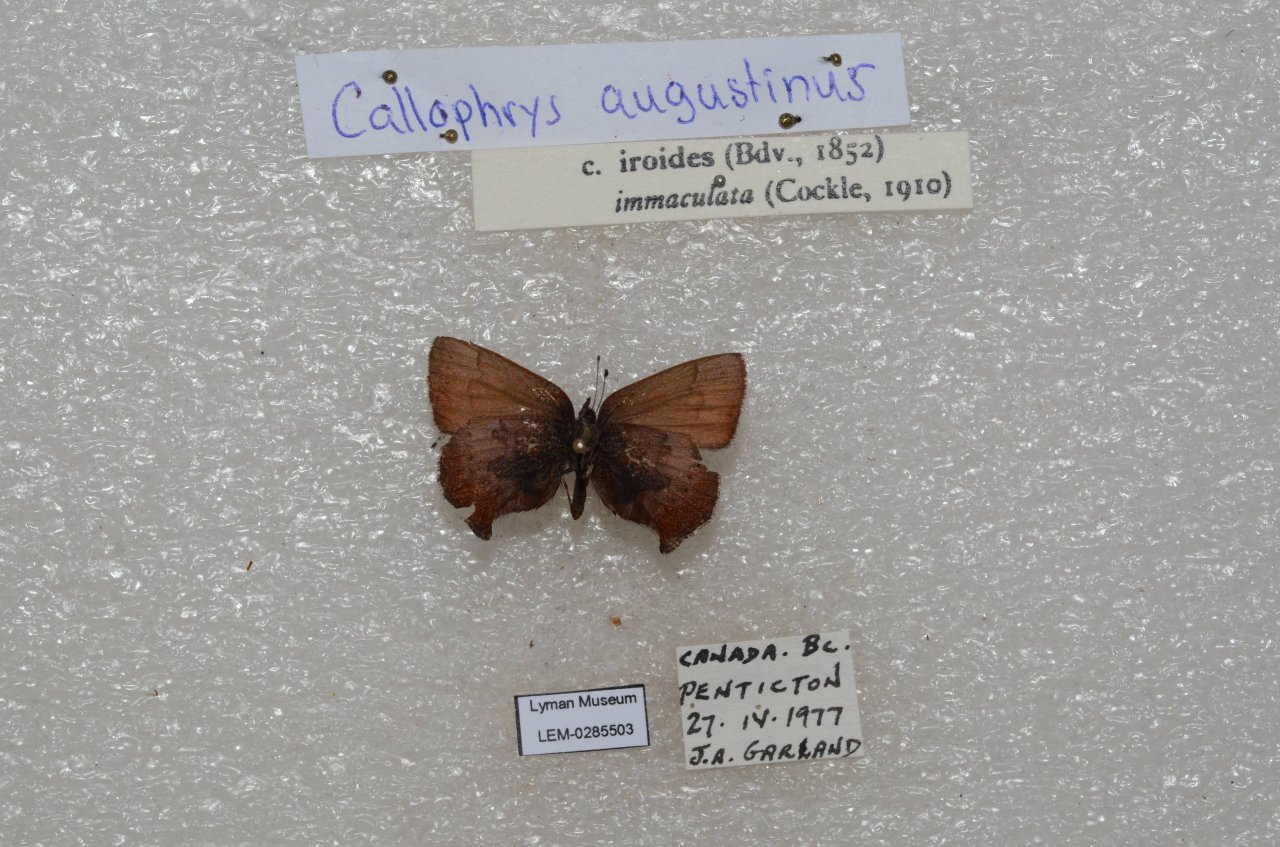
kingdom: Animalia
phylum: Arthropoda
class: Insecta
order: Lepidoptera
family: Lycaenidae
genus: Incisalia
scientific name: Incisalia irioides
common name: Brown Elfin
